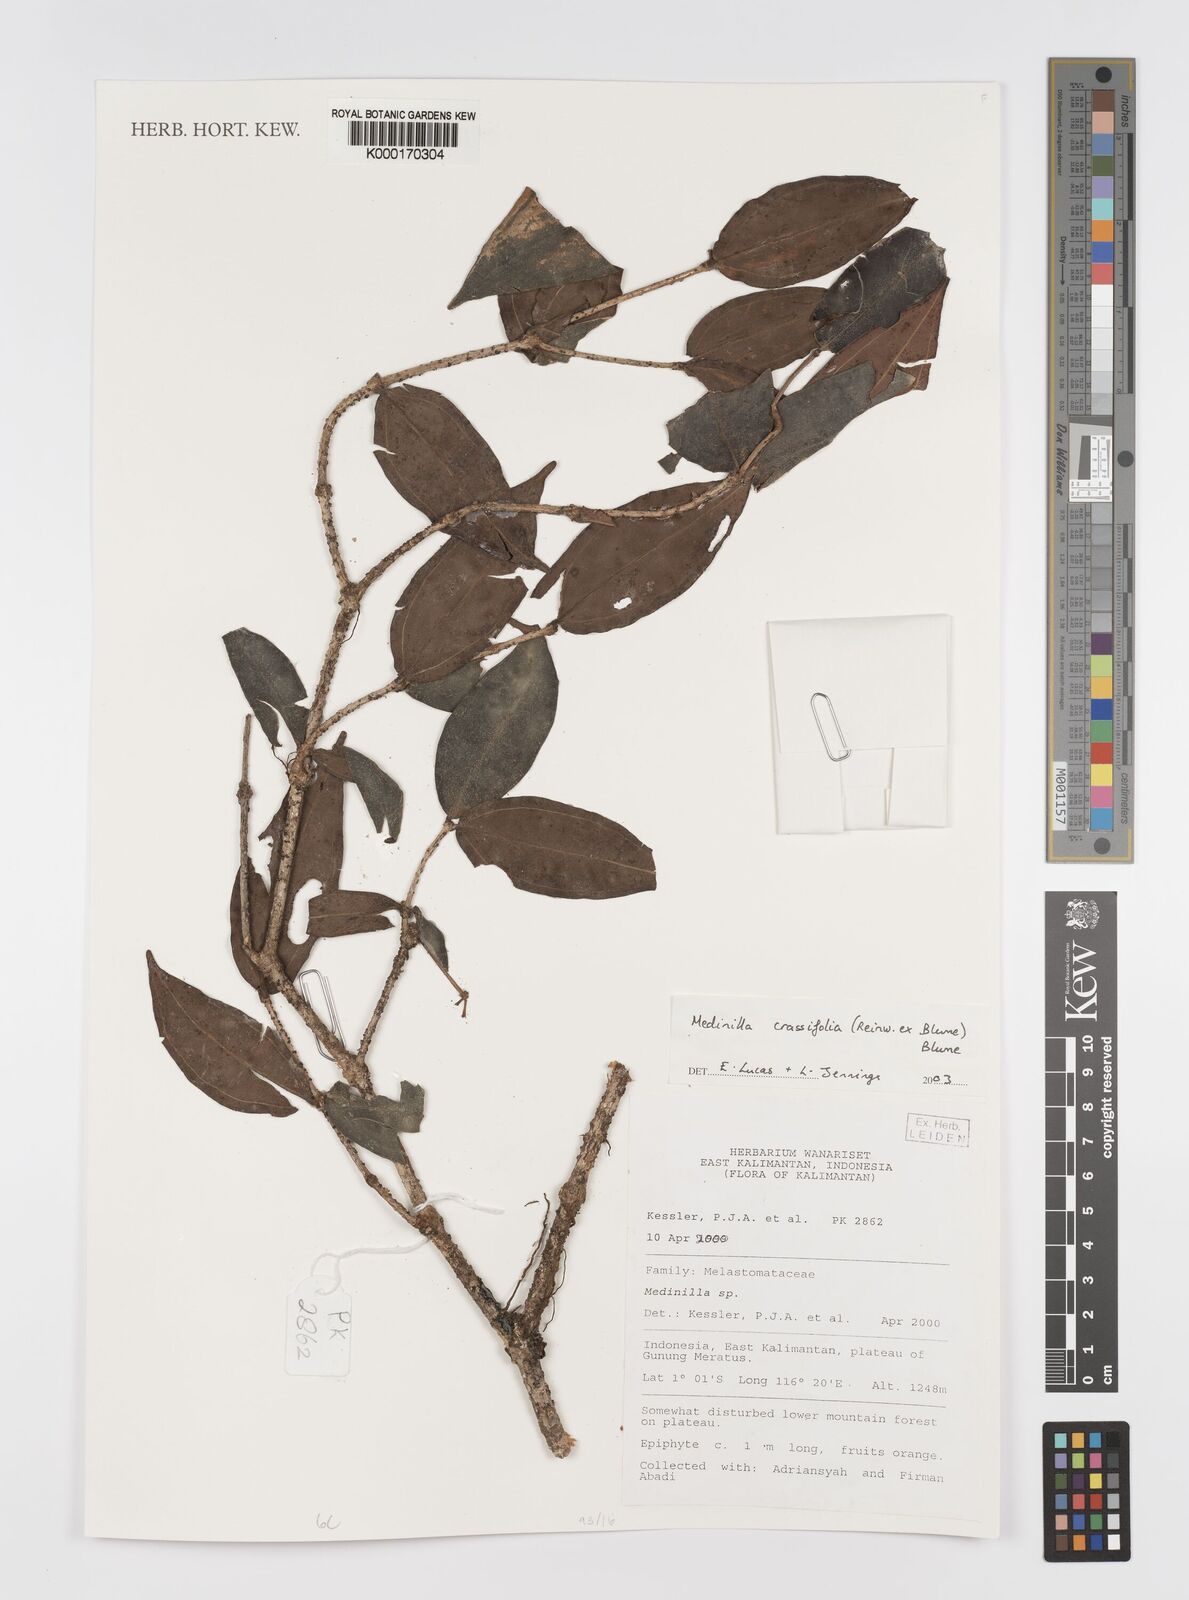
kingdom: Plantae
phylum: Tracheophyta
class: Magnoliopsida
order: Myrtales
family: Melastomataceae
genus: Medinilla
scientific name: Medinilla crassifolia
